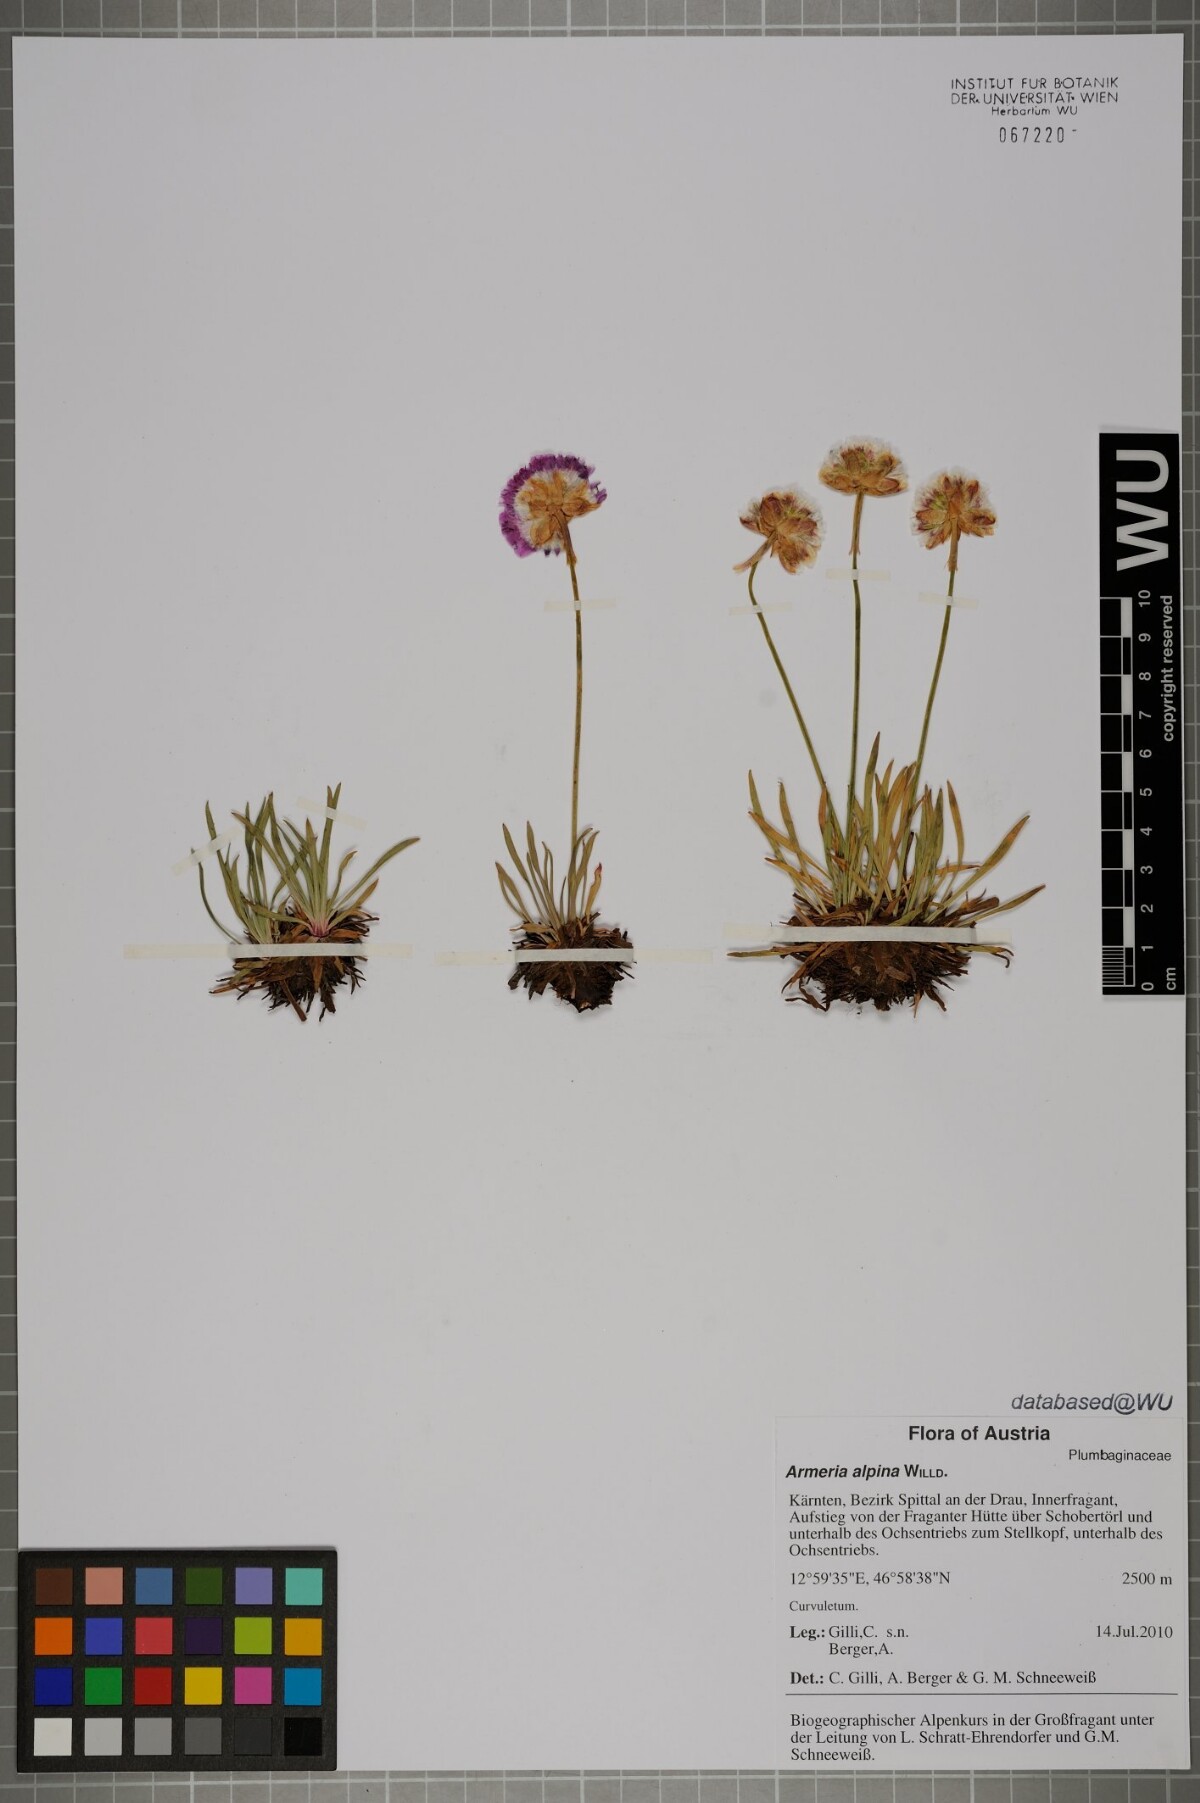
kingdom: Plantae
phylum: Tracheophyta
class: Magnoliopsida
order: Caryophyllales
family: Plumbaginaceae
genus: Armeria
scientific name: Armeria alpina
